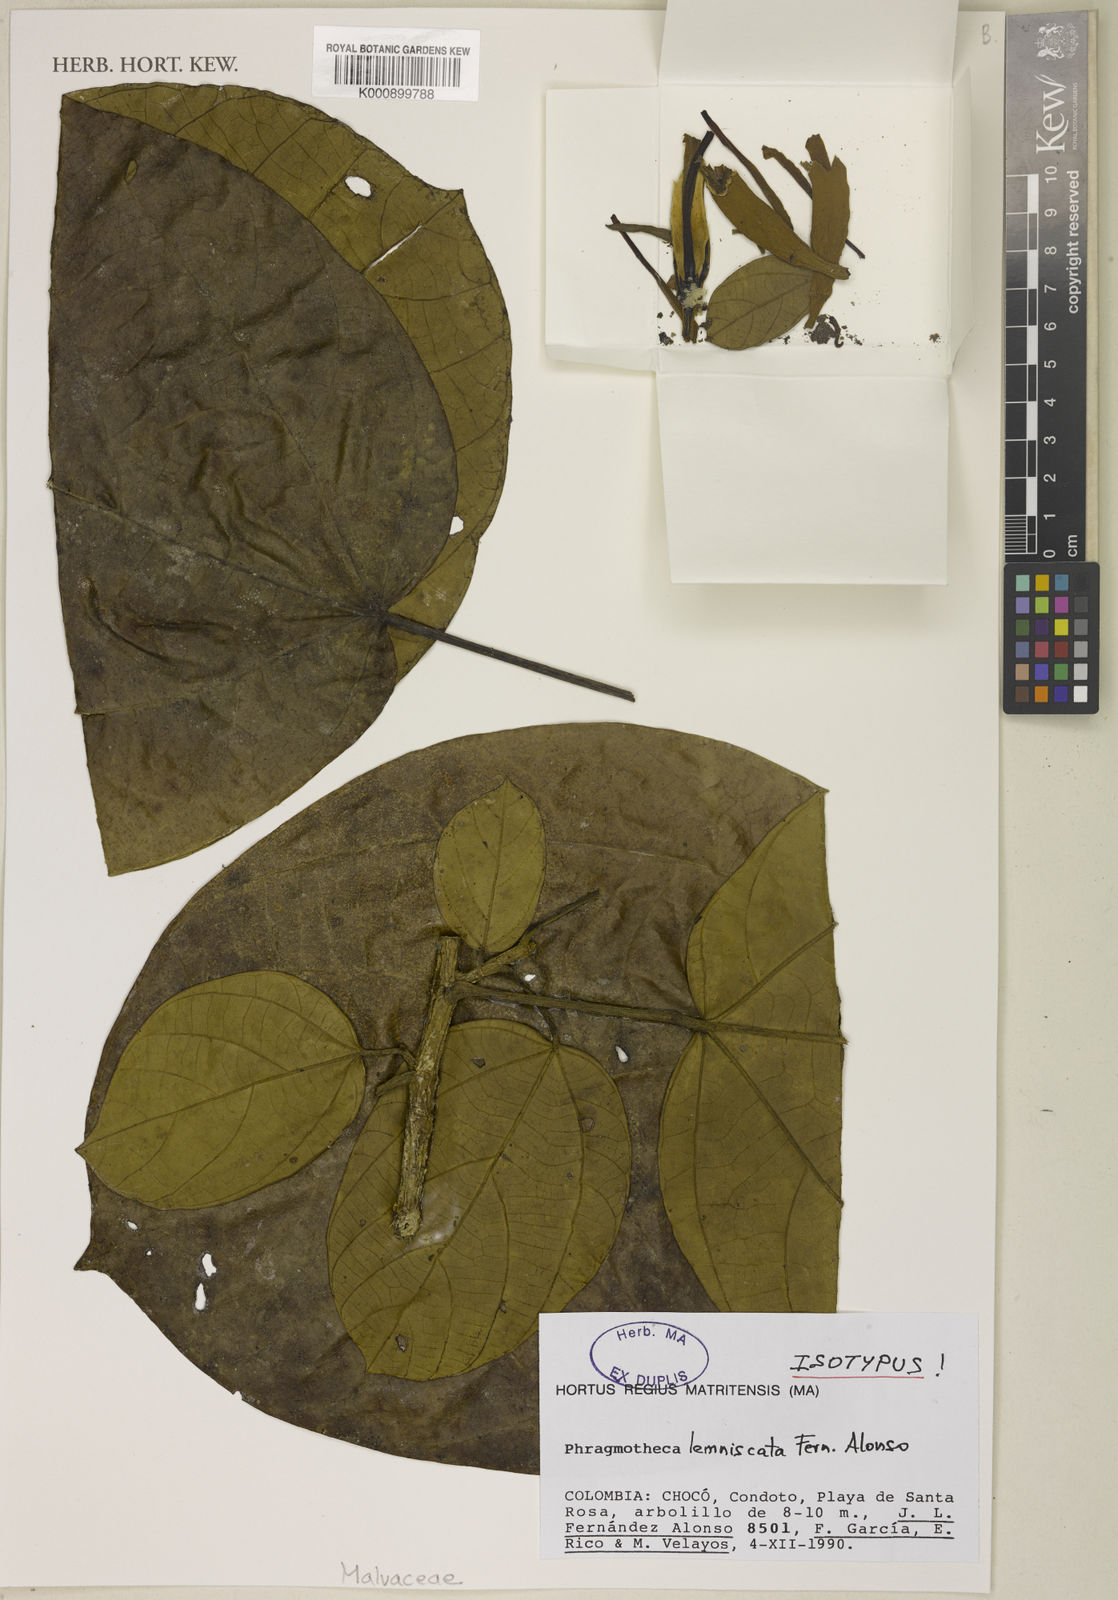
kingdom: Plantae
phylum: Tracheophyta
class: Magnoliopsida
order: Malvales
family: Malvaceae
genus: Phragmotheca
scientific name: Phragmotheca lemniscata
